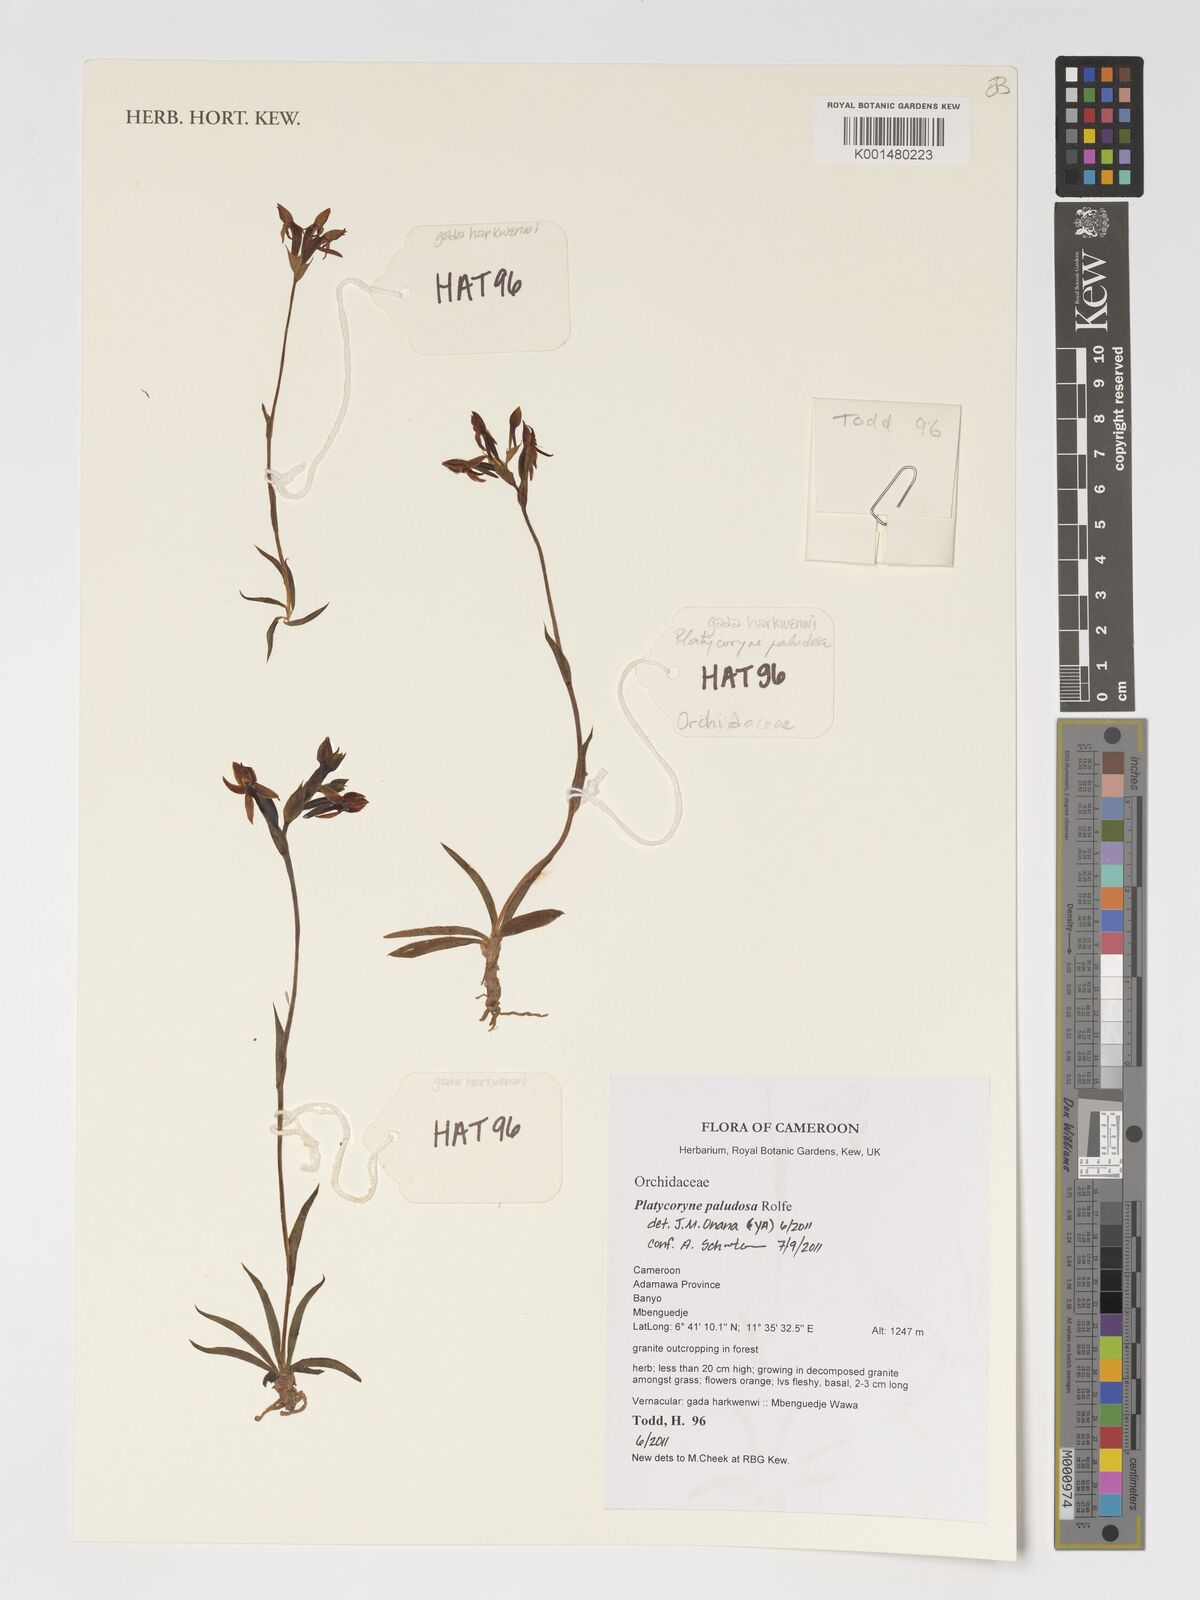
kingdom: Plantae
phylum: Tracheophyta
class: Liliopsida
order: Asparagales
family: Orchidaceae
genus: Platycoryne
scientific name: Platycoryne paludosa
